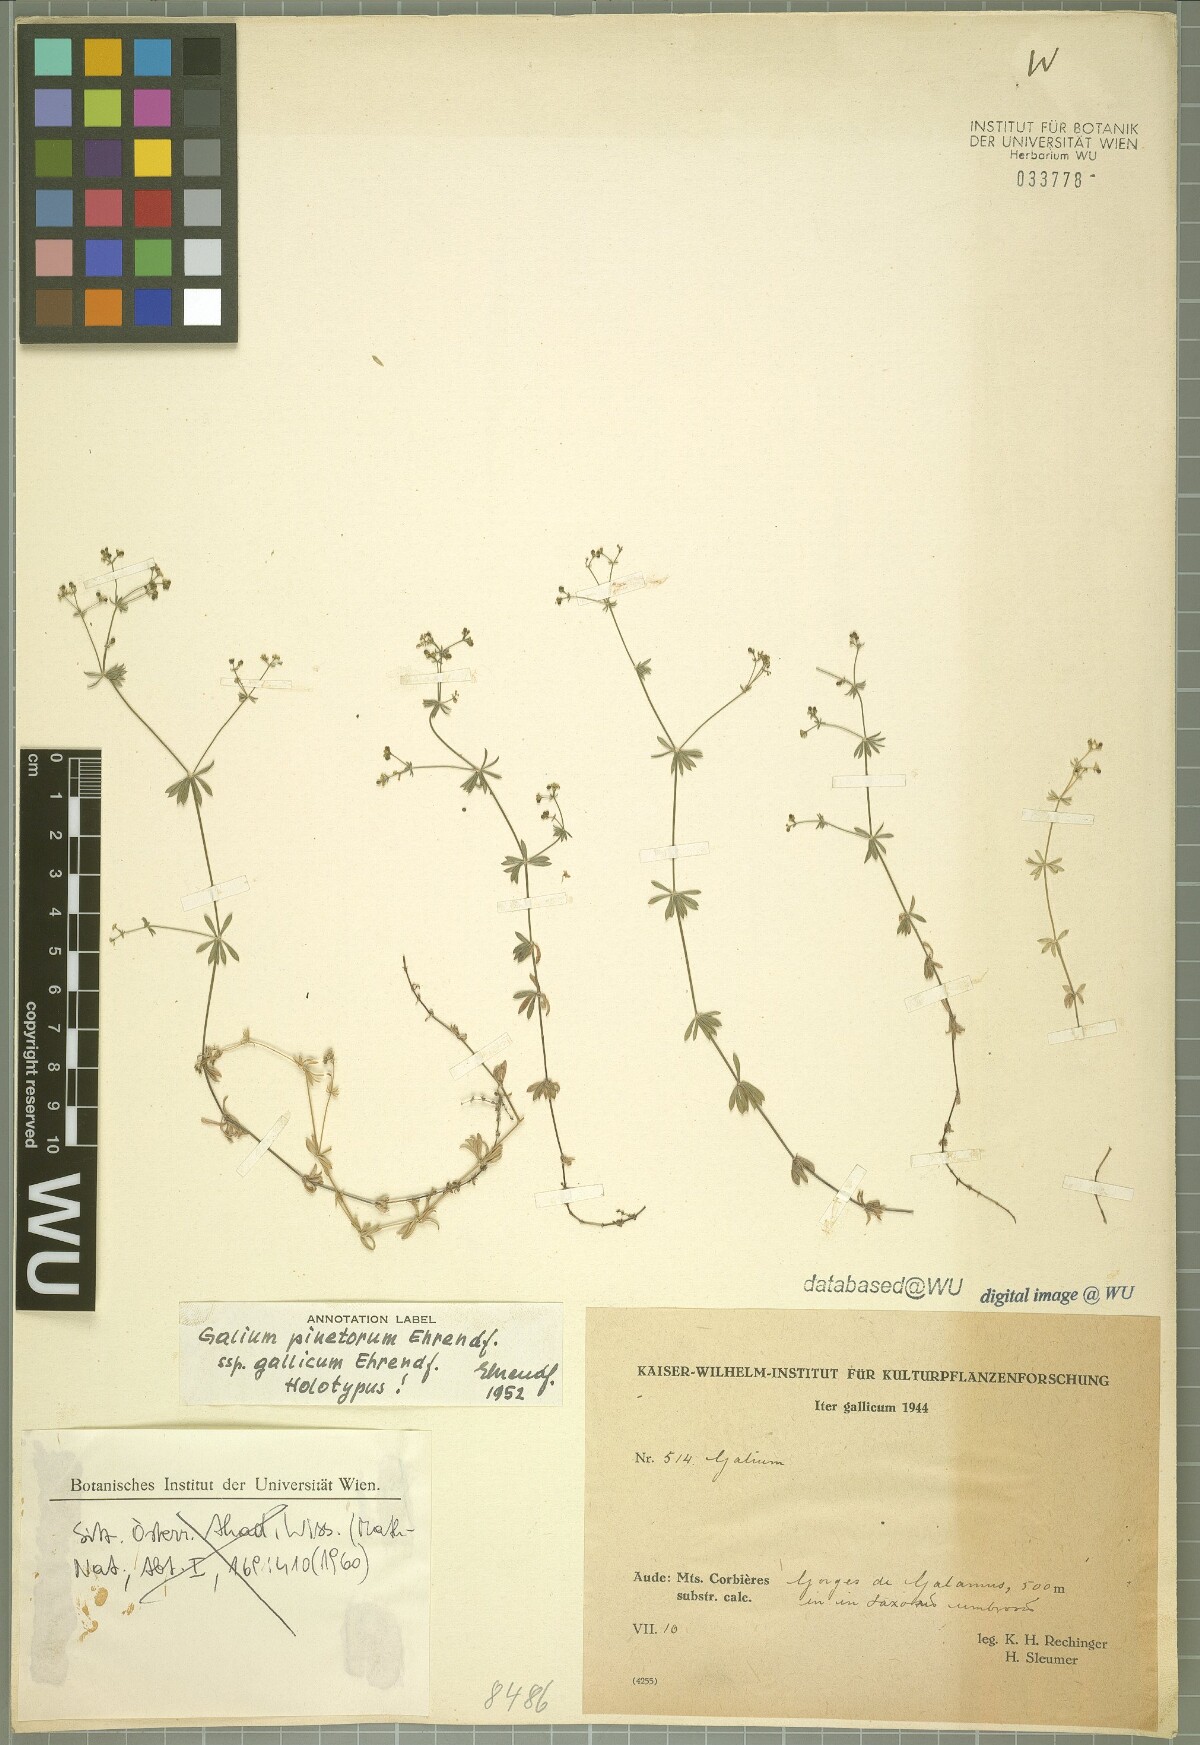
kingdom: Plantae
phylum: Tracheophyta
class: Magnoliopsida
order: Gentianales
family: Rubiaceae
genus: Galium
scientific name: Galium estebanii
